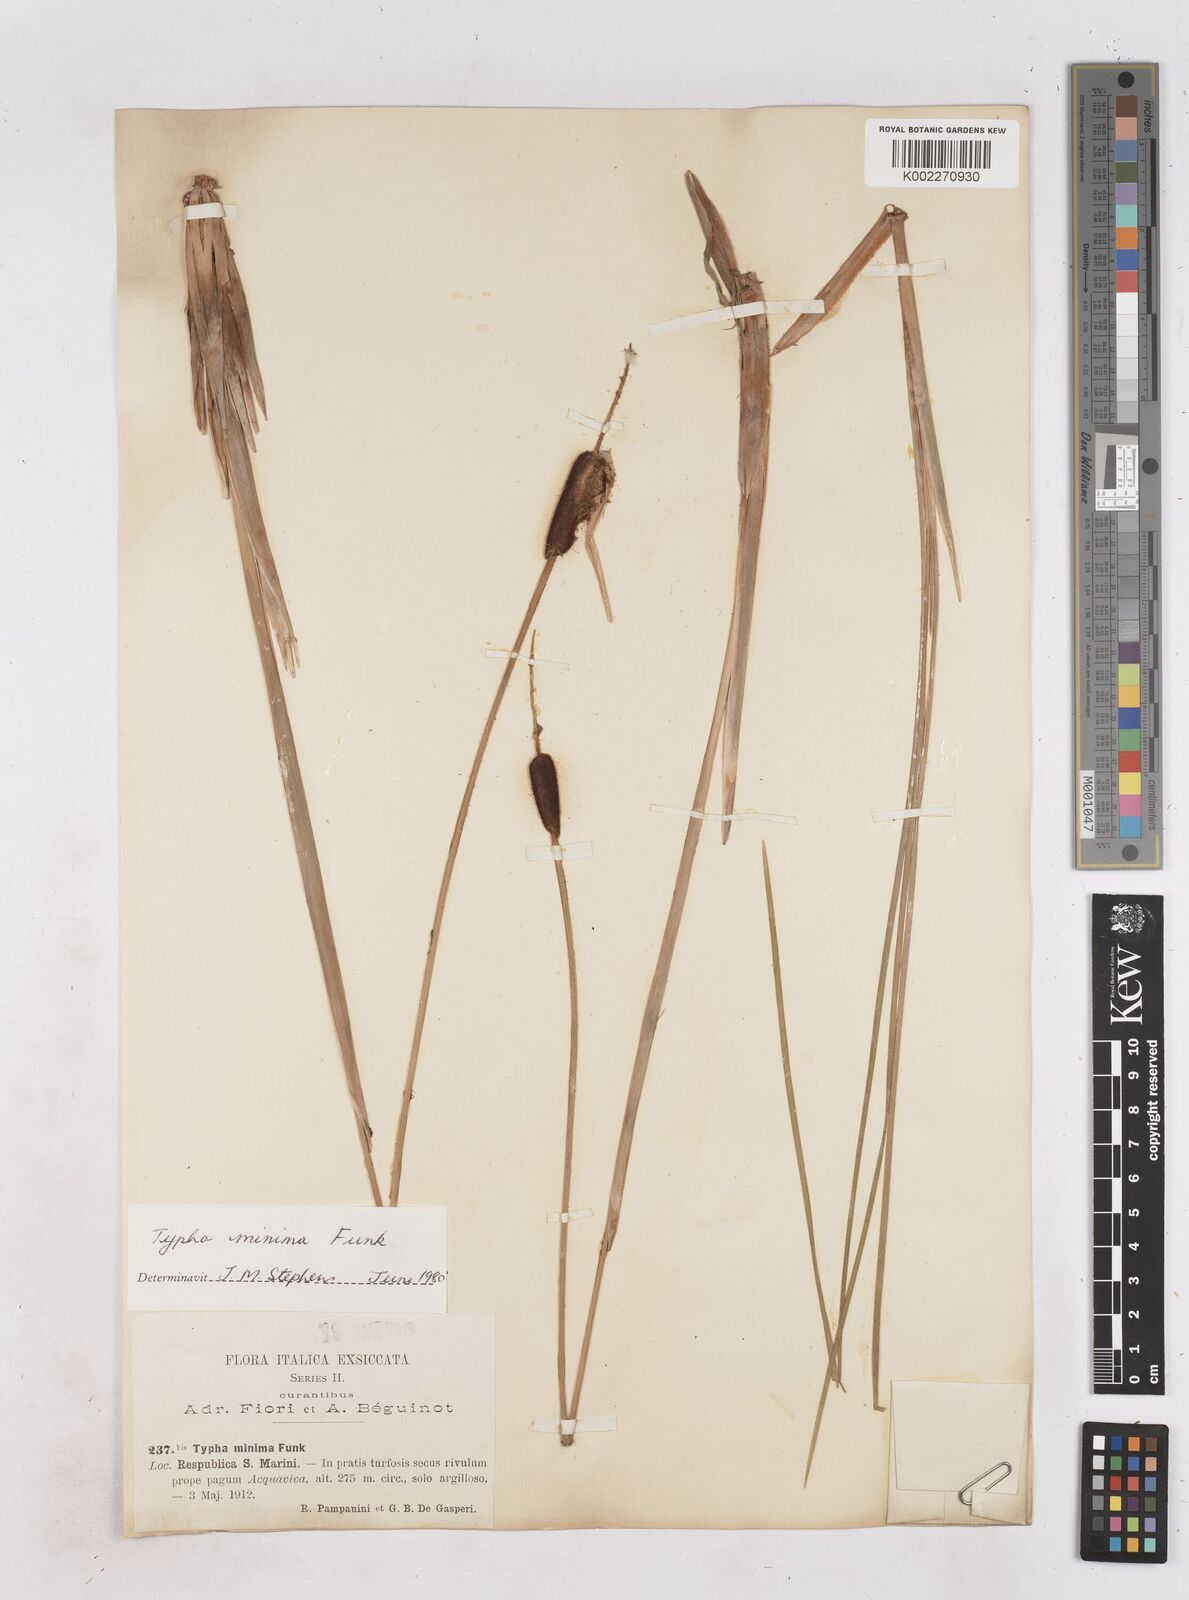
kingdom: Plantae
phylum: Tracheophyta
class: Liliopsida
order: Poales
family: Typhaceae
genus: Typha
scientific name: Typha minima
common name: Dwarf bulrush
